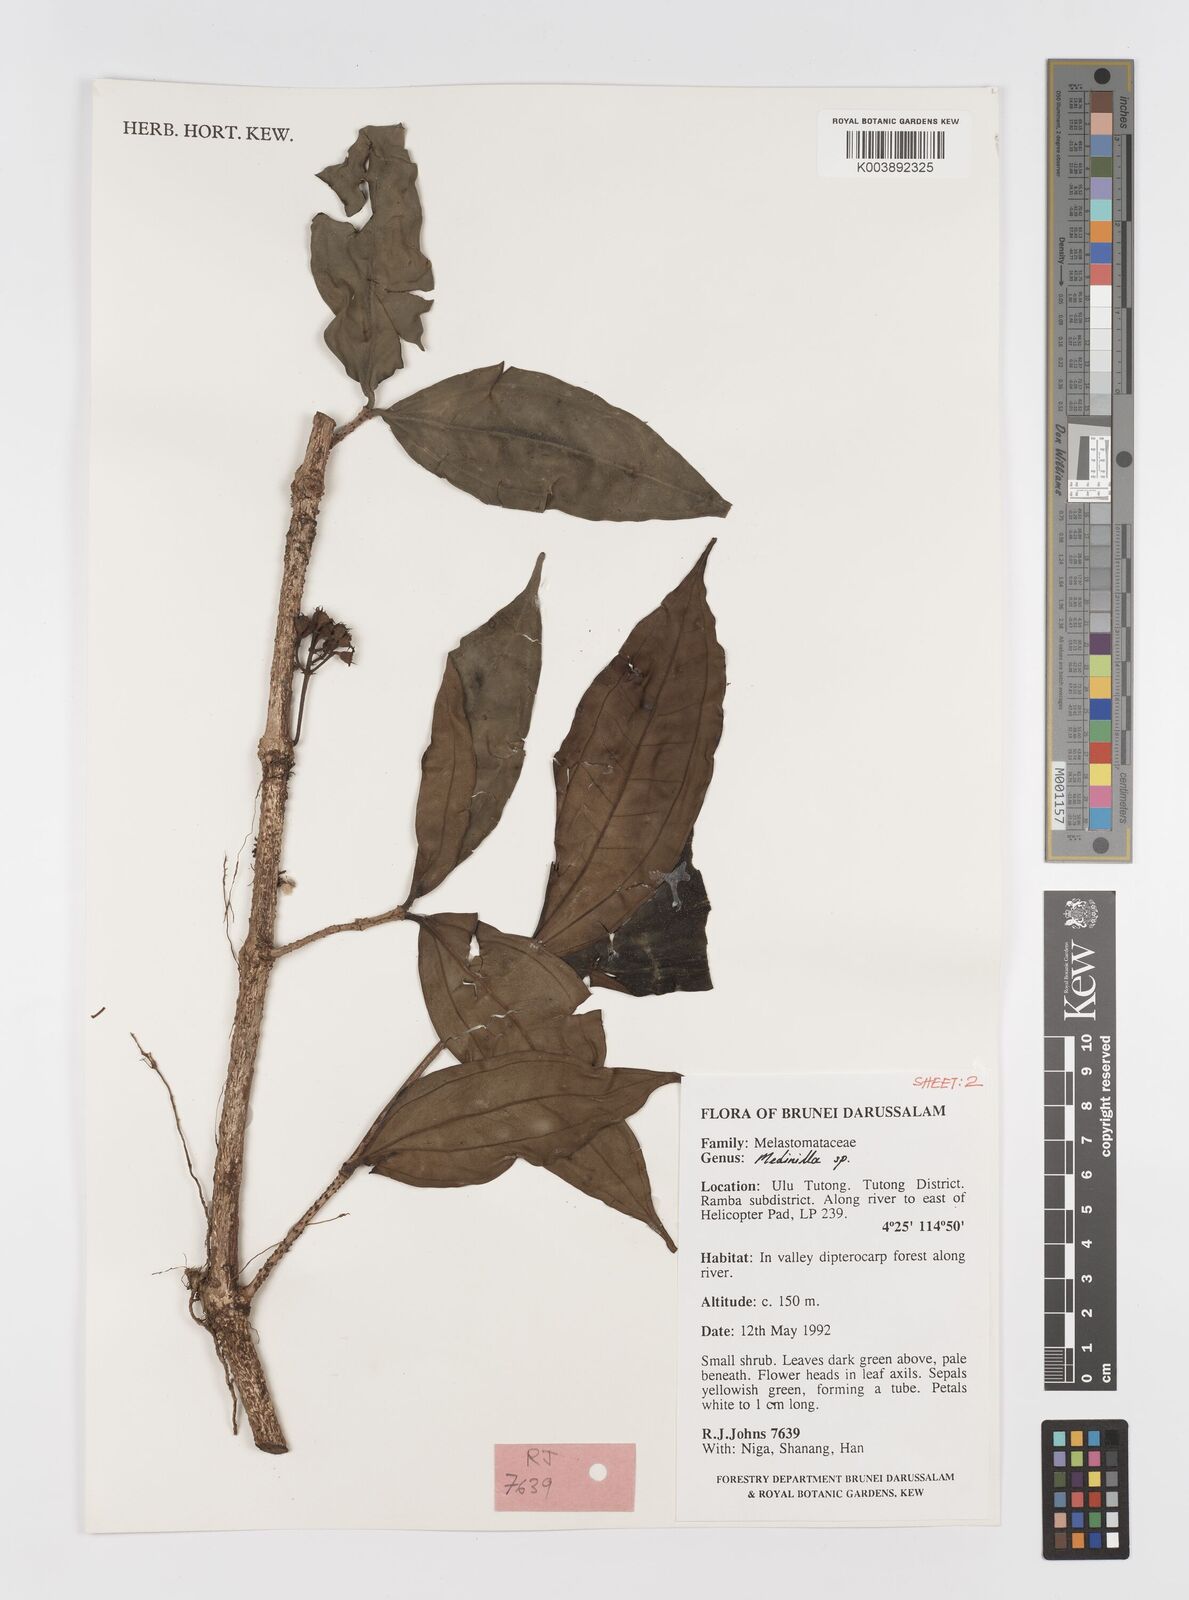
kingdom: Plantae
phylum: Tracheophyta
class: Magnoliopsida
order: Myrtales
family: Melastomataceae
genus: Medinilla
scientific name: Medinilla
